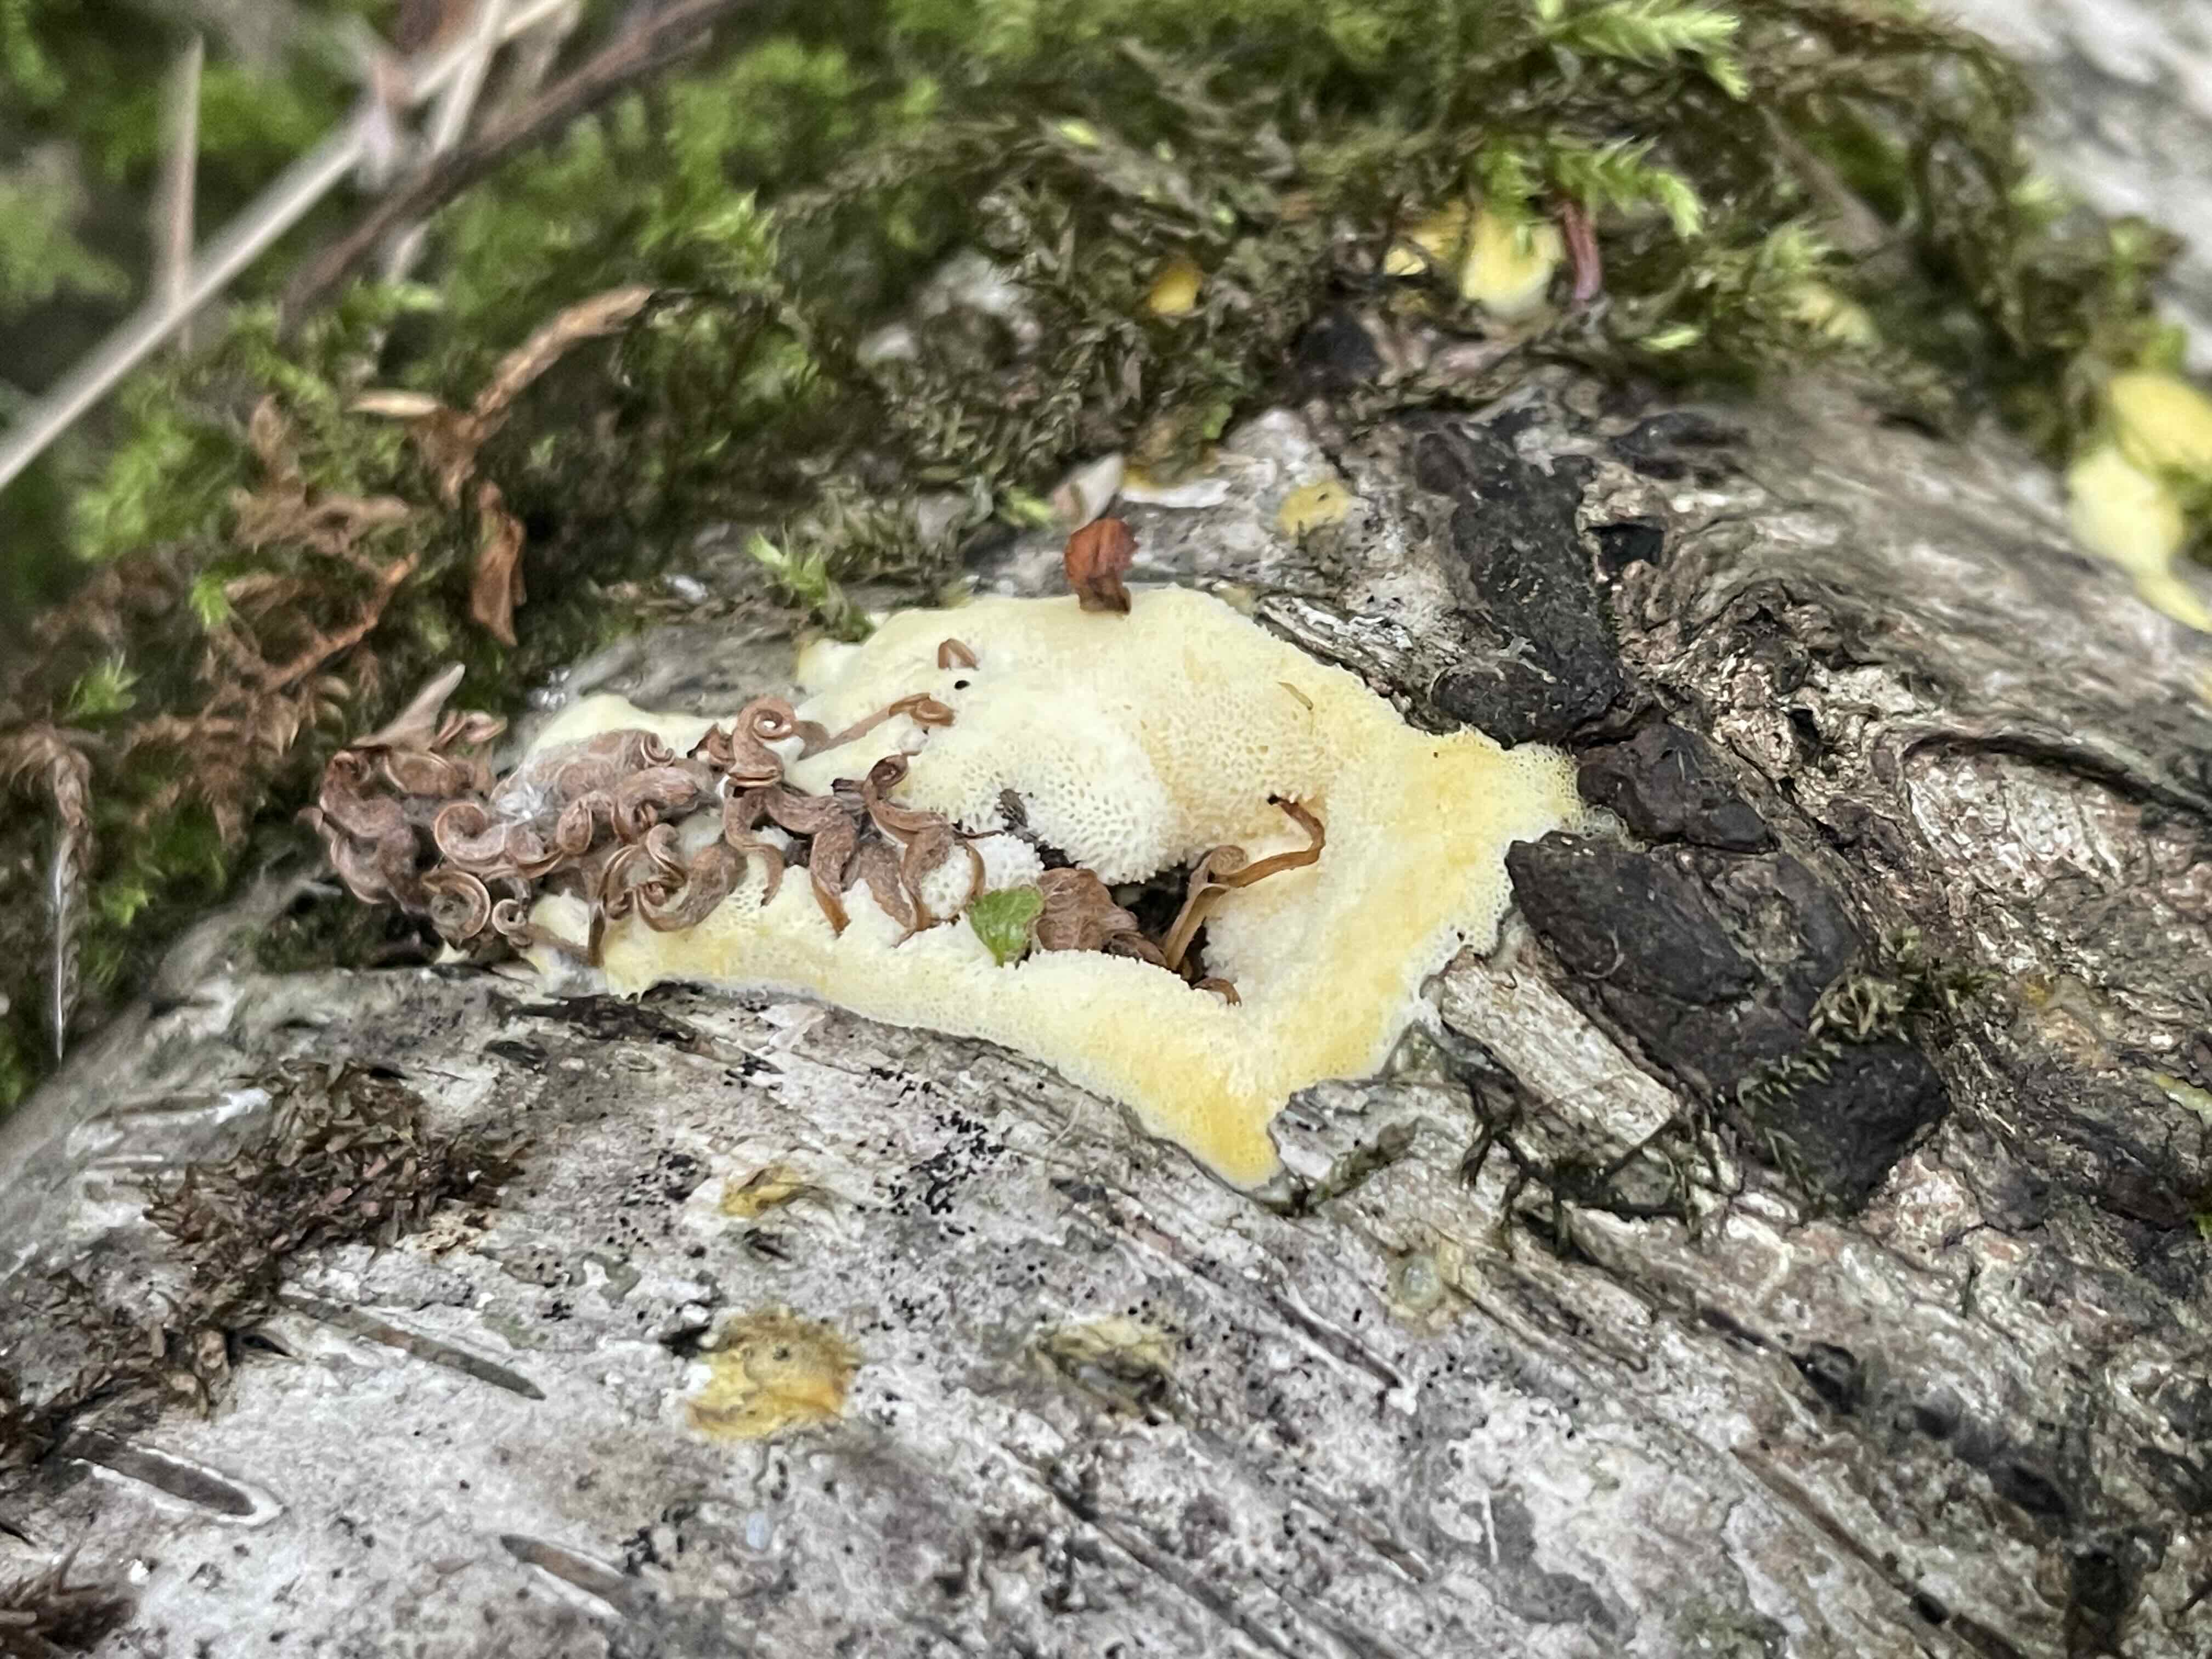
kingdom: Protozoa
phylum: Mycetozoa
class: Protosteliomycetes
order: Ceratiomyxales
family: Ceratiomyxaceae
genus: Ceratiomyxa
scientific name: Ceratiomyxa fruticulosa
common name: Honeycomb coral slime mold
